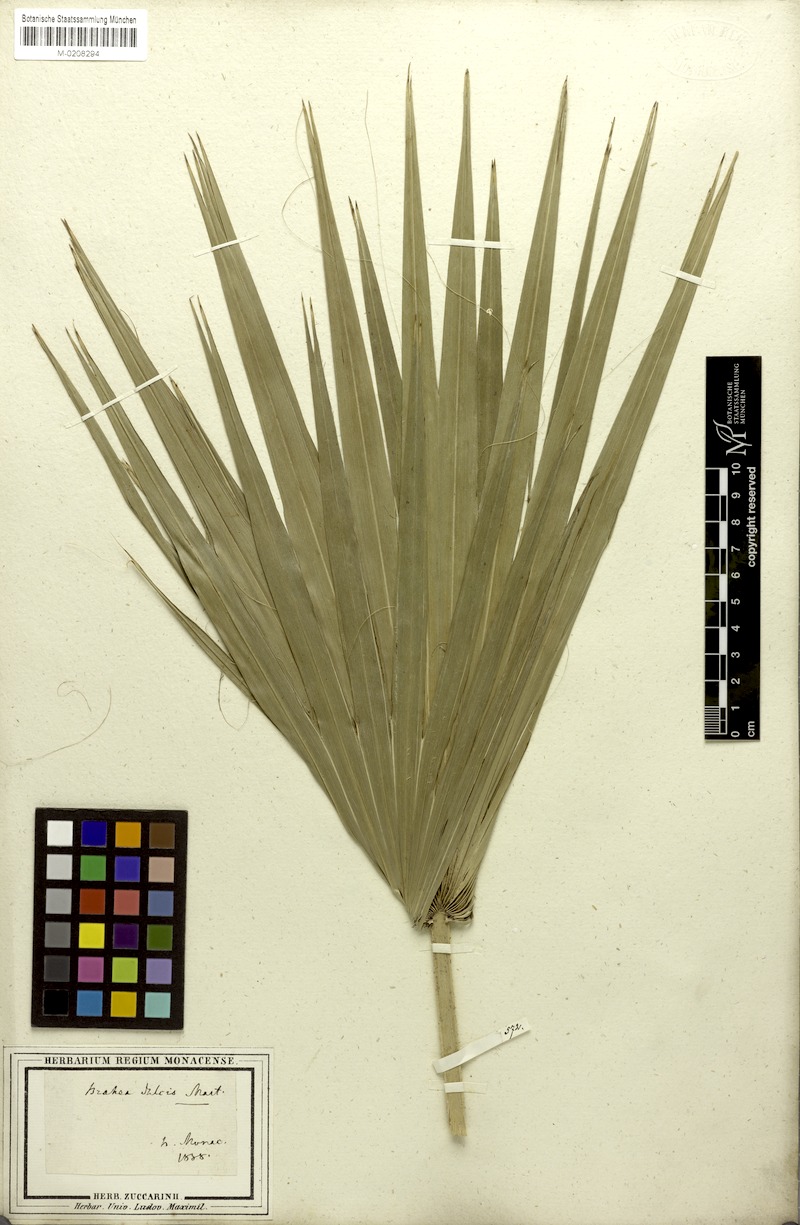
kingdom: Plantae
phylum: Tracheophyta
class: Liliopsida
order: Arecales
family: Arecaceae
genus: Brahea
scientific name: Brahea dulcis
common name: Apak palm
